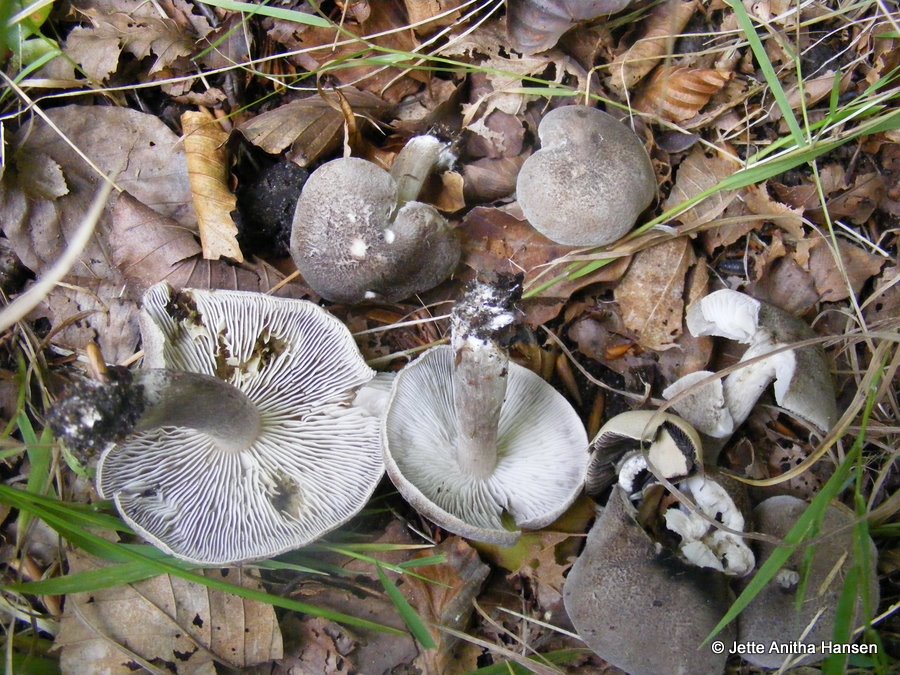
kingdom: Fungi
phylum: Basidiomycota
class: Agaricomycetes
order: Agaricales
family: Tricholomataceae
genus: Tricholoma
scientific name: Tricholoma scalpturatum
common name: gulplettet ridderhat
